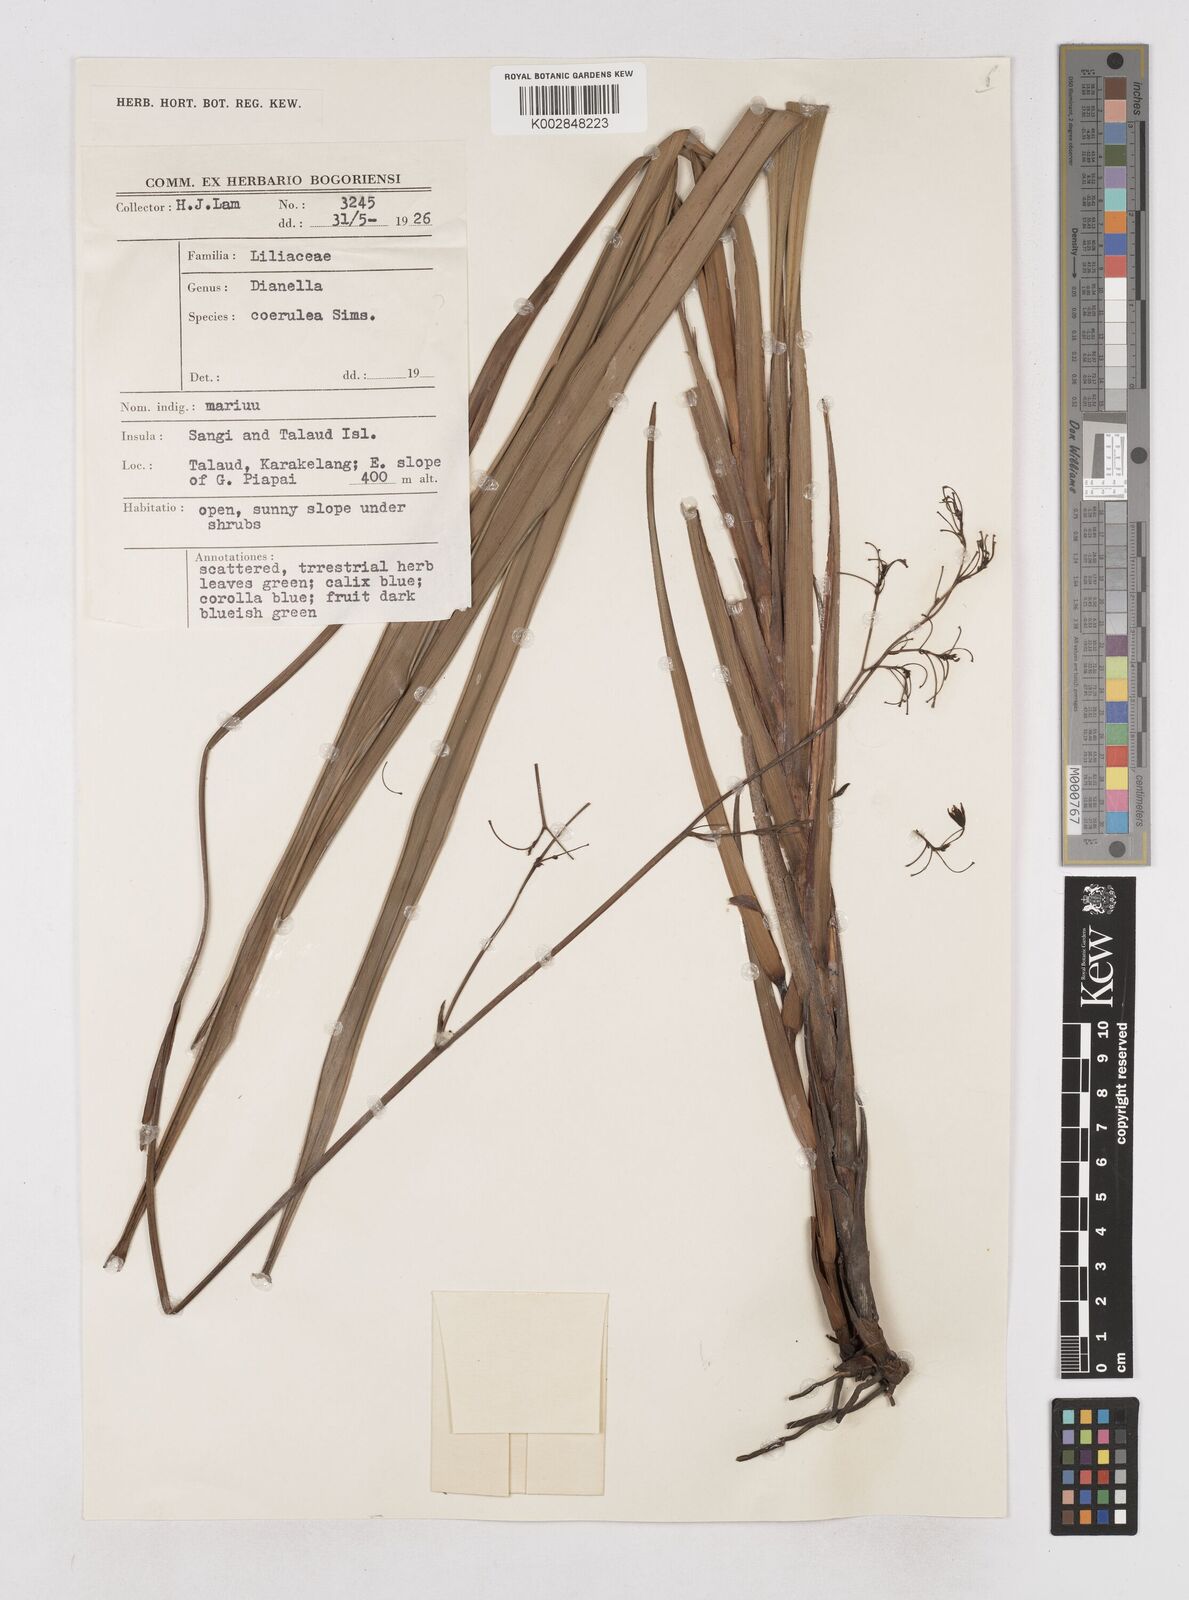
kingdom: Plantae
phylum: Tracheophyta
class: Liliopsida
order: Asparagales
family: Asphodelaceae
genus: Dianella
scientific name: Dianella
